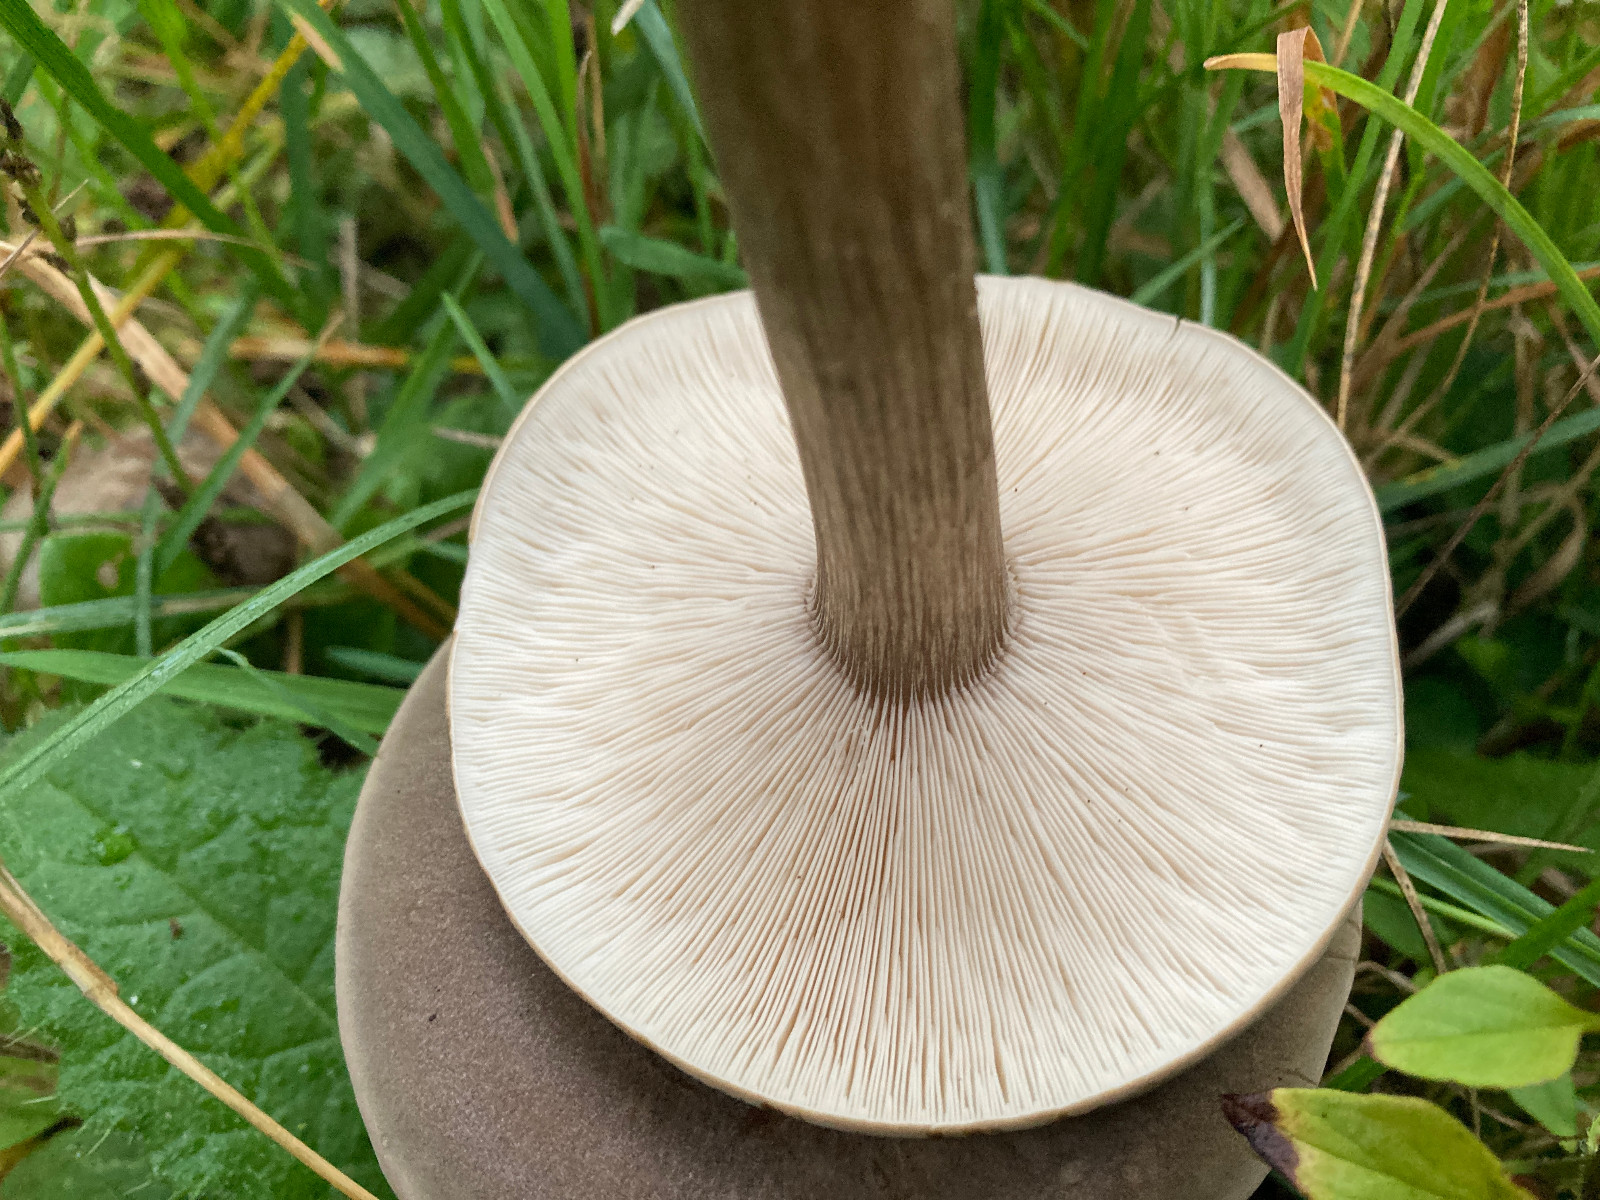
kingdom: Fungi
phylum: Basidiomycota
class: Agaricomycetes
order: Agaricales
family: Tricholomataceae
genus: Melanoleuca
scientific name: Melanoleuca grammopodia
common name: stribestokket munkehat
